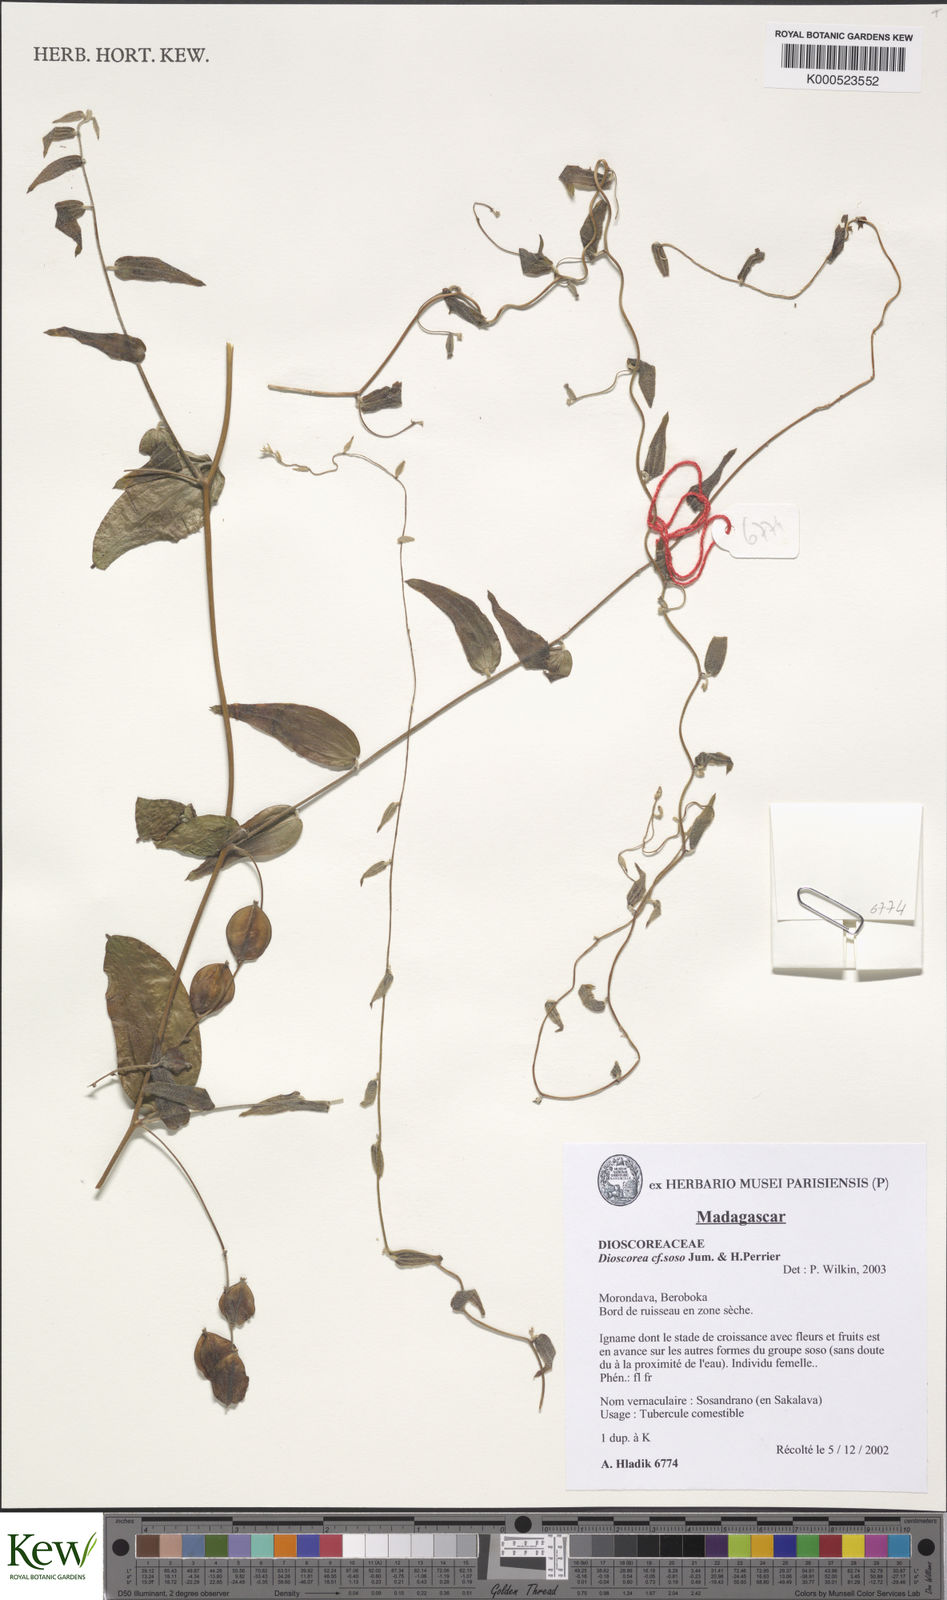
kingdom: Plantae
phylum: Tracheophyta
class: Liliopsida
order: Dioscoreales
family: Dioscoreaceae
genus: Dioscorea
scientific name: Dioscorea soso
